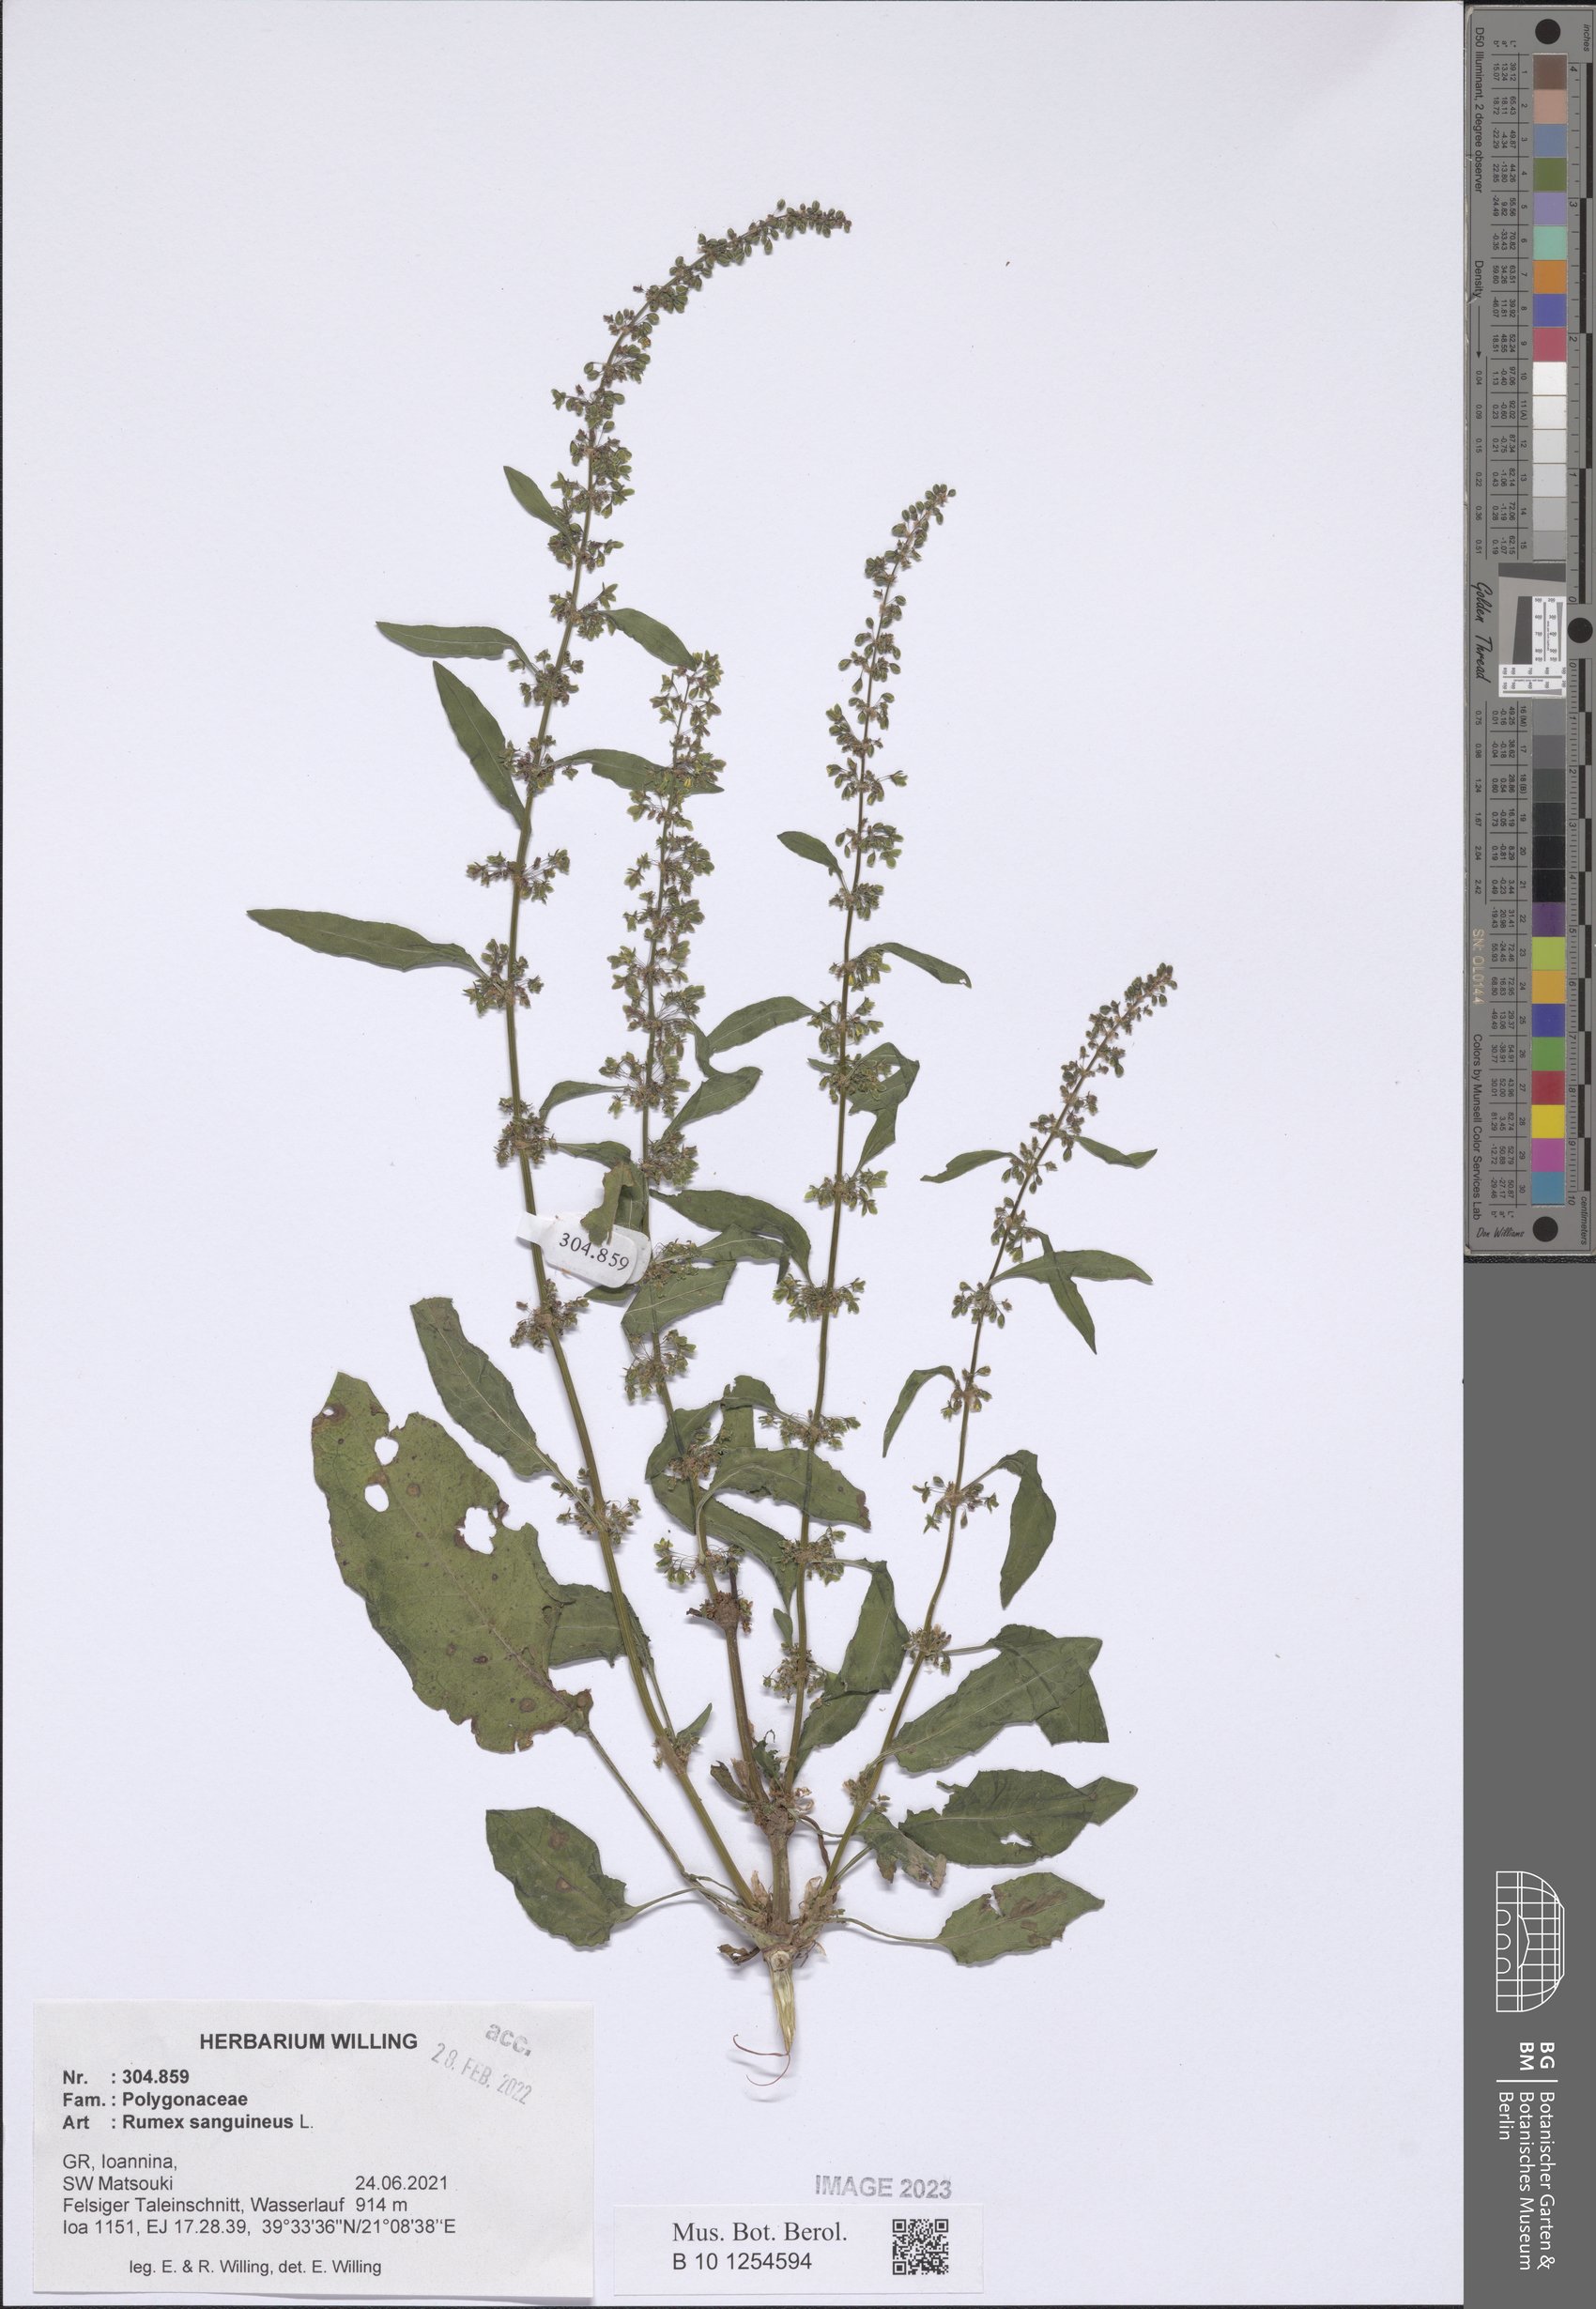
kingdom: Plantae
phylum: Tracheophyta
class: Magnoliopsida
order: Caryophyllales
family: Polygonaceae
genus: Rumex
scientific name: Rumex sanguineus
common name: Wood dock
